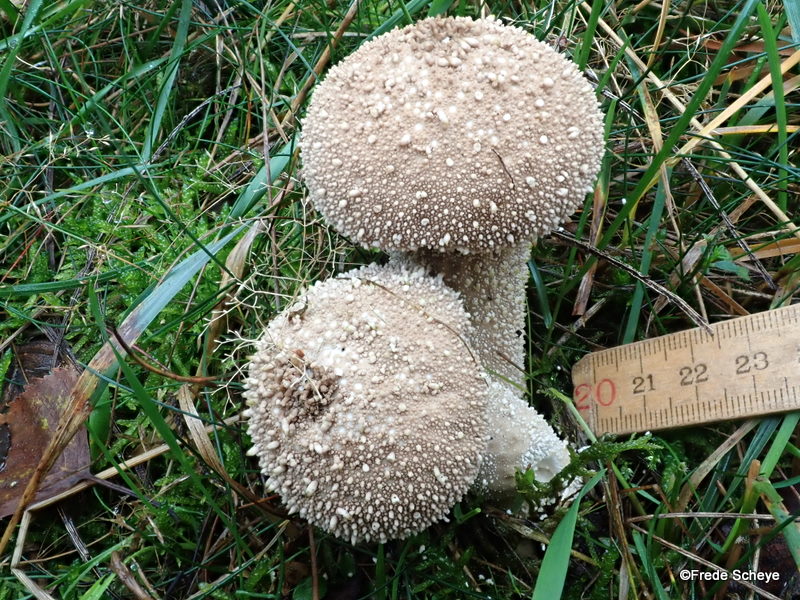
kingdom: Fungi
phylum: Basidiomycota
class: Agaricomycetes
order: Agaricales
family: Lycoperdaceae
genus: Lycoperdon
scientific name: Lycoperdon perlatum
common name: krystal-støvbold
